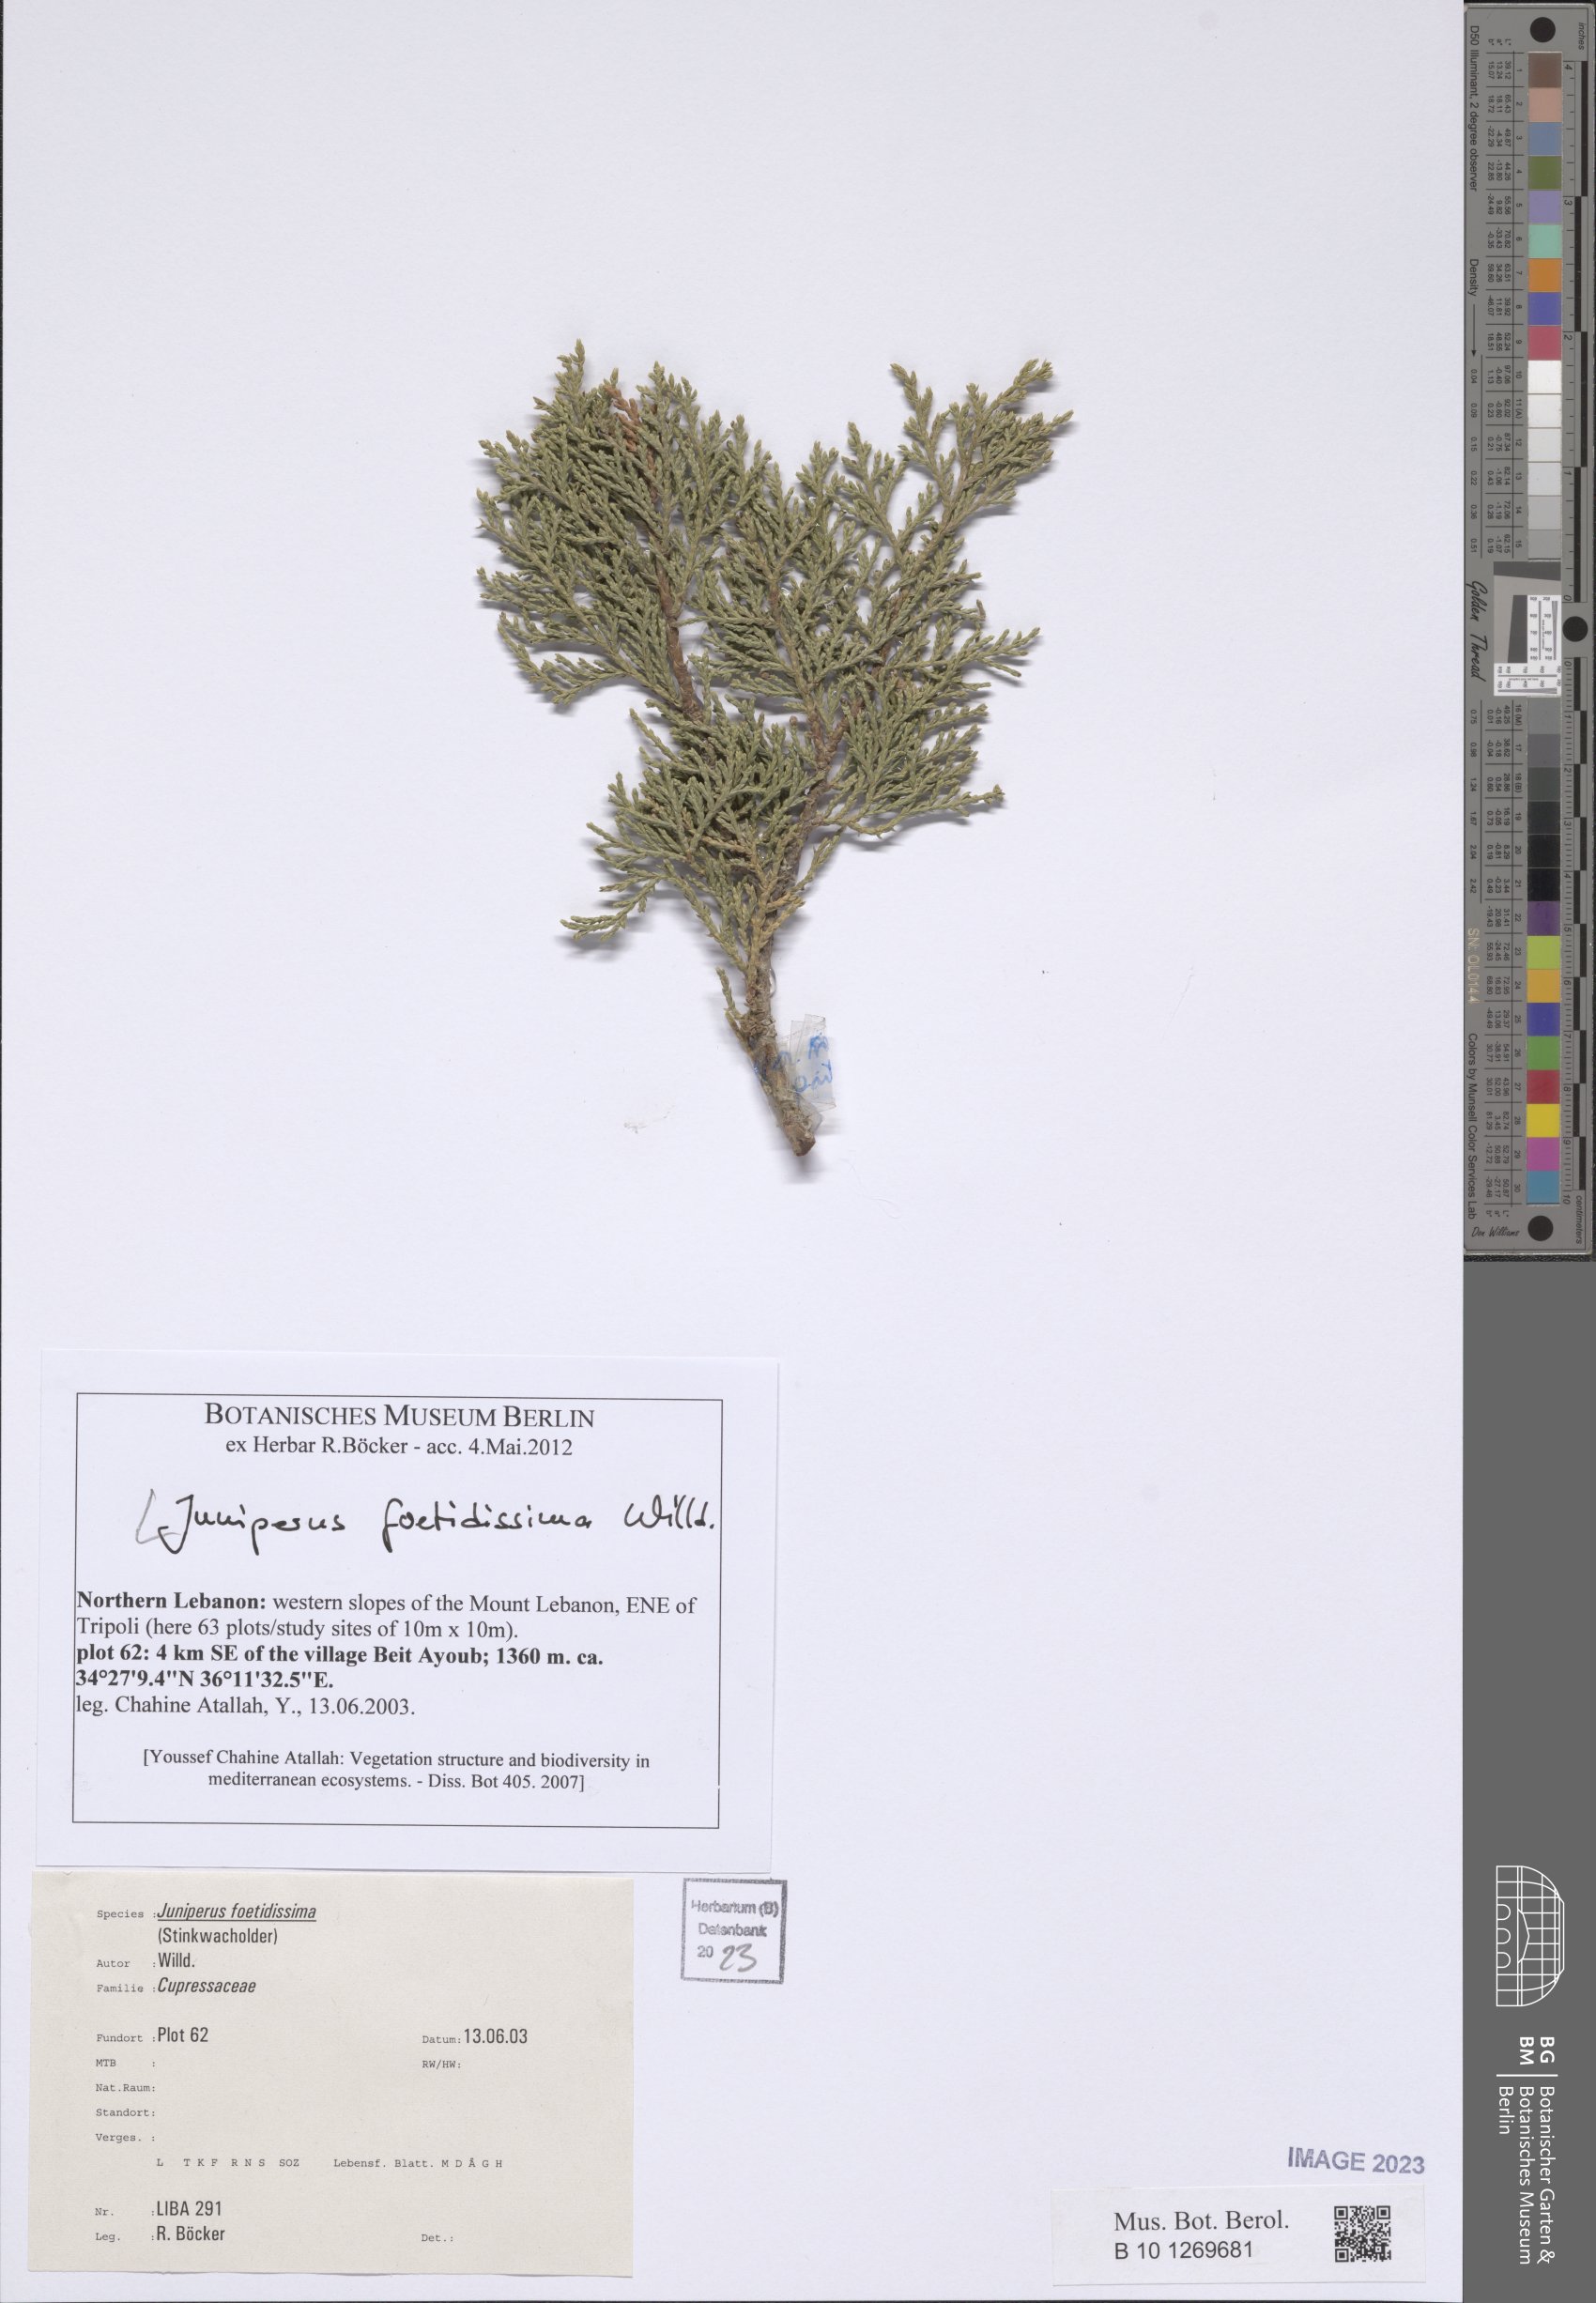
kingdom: Plantae
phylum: Tracheophyta
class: Pinopsida
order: Pinales
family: Cupressaceae
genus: Juniperus
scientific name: Juniperus foetidissima
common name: Stinking juniper
